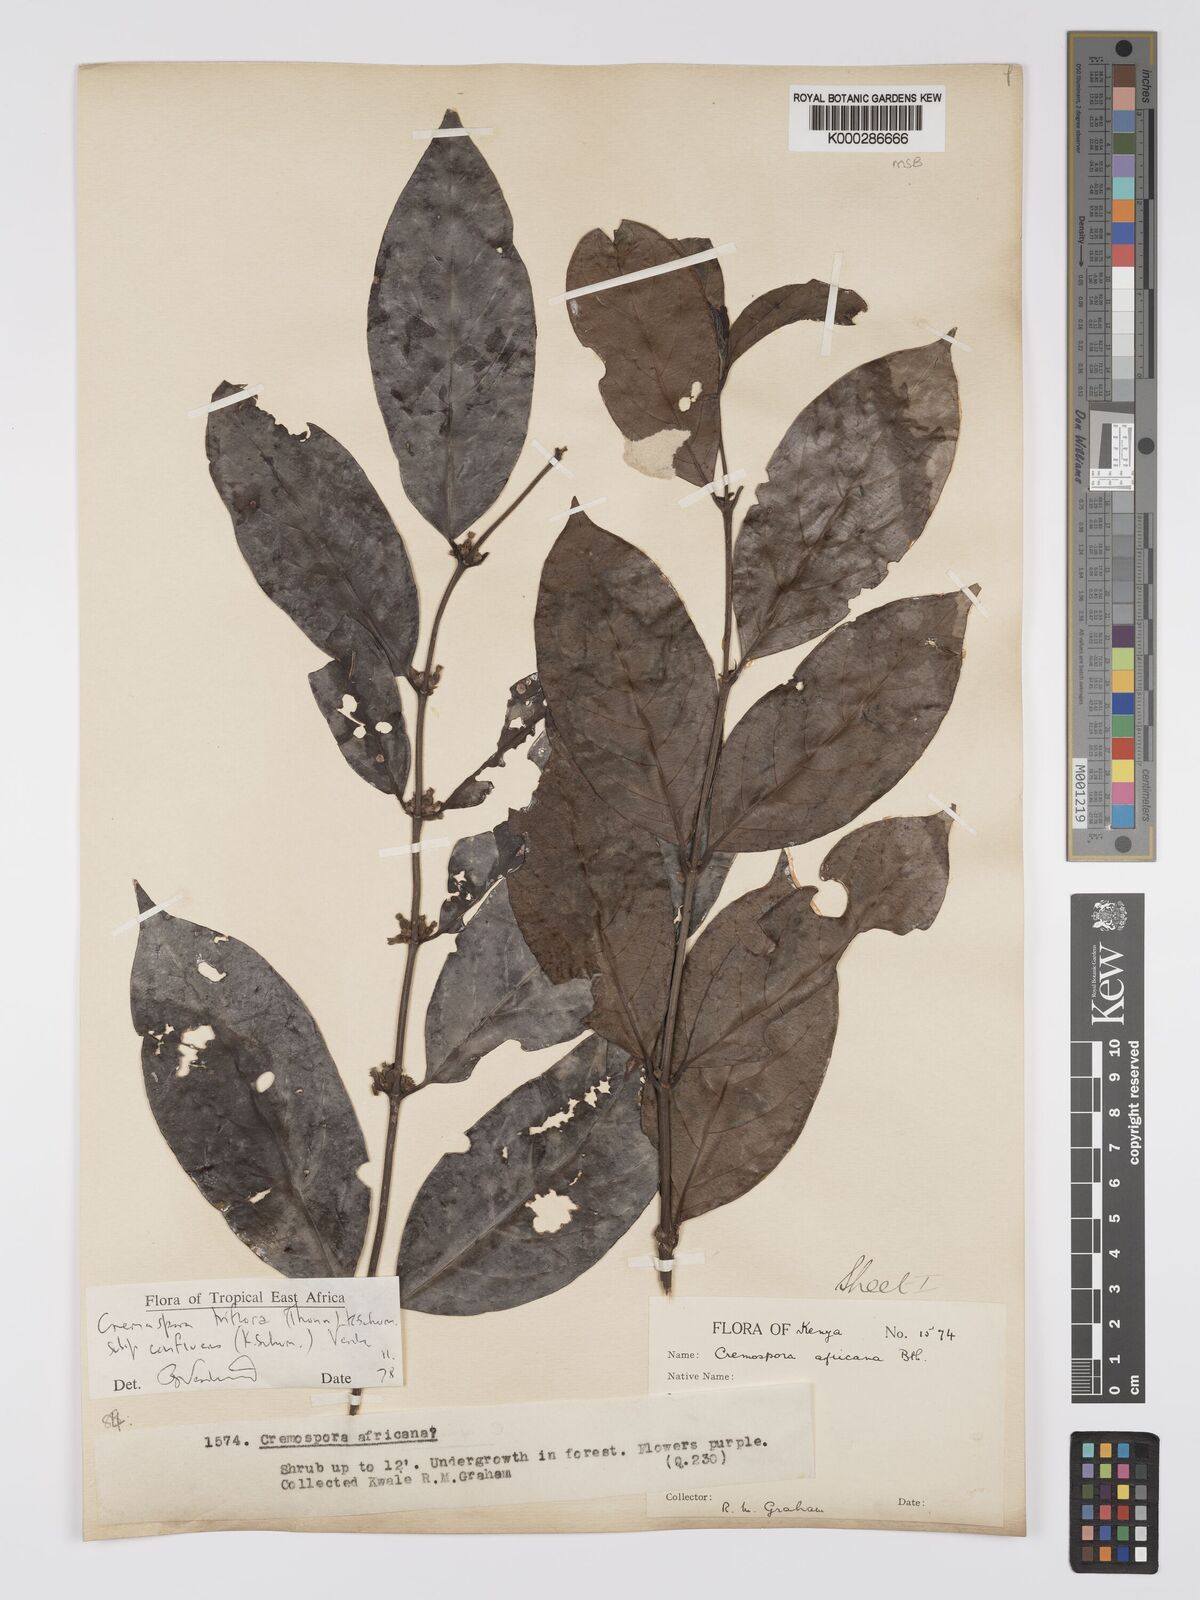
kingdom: Plantae
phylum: Tracheophyta
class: Magnoliopsida
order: Gentianales
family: Rubiaceae
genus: Cremaspora
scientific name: Cremaspora triflora
